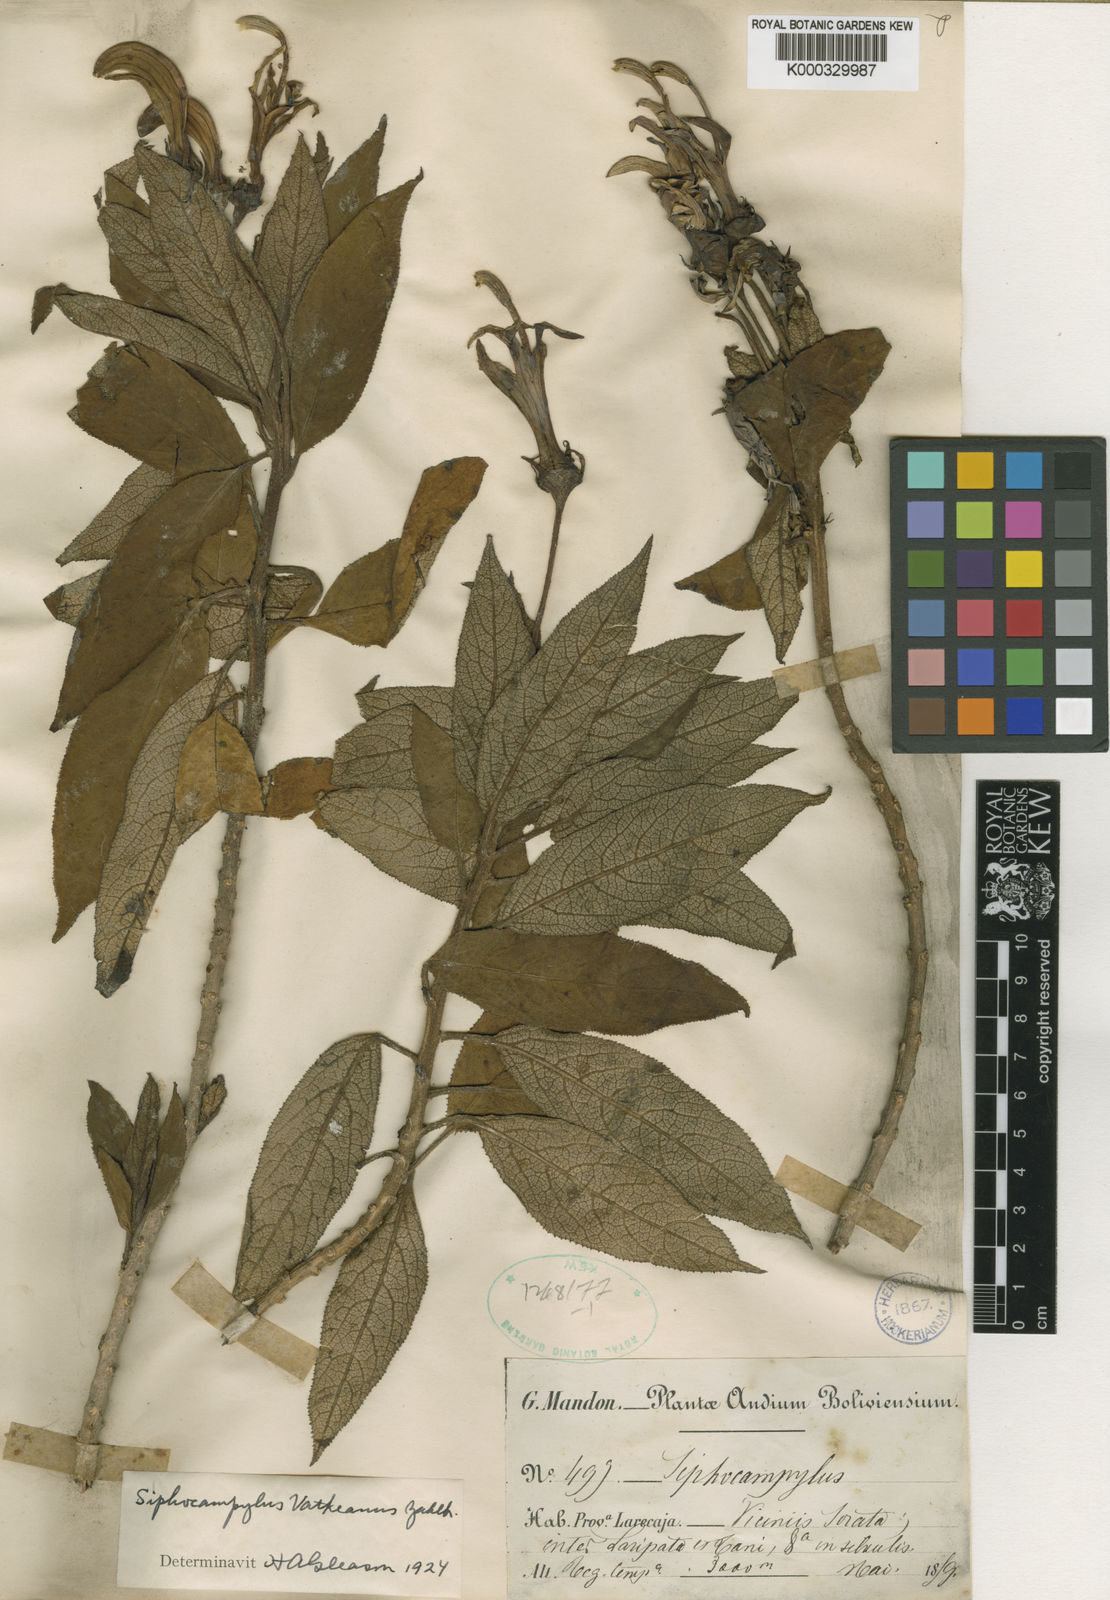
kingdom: Plantae
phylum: Tracheophyta
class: Magnoliopsida
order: Asterales
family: Campanulaceae
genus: Siphocampylus
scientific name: Siphocampylus vatkeanus
